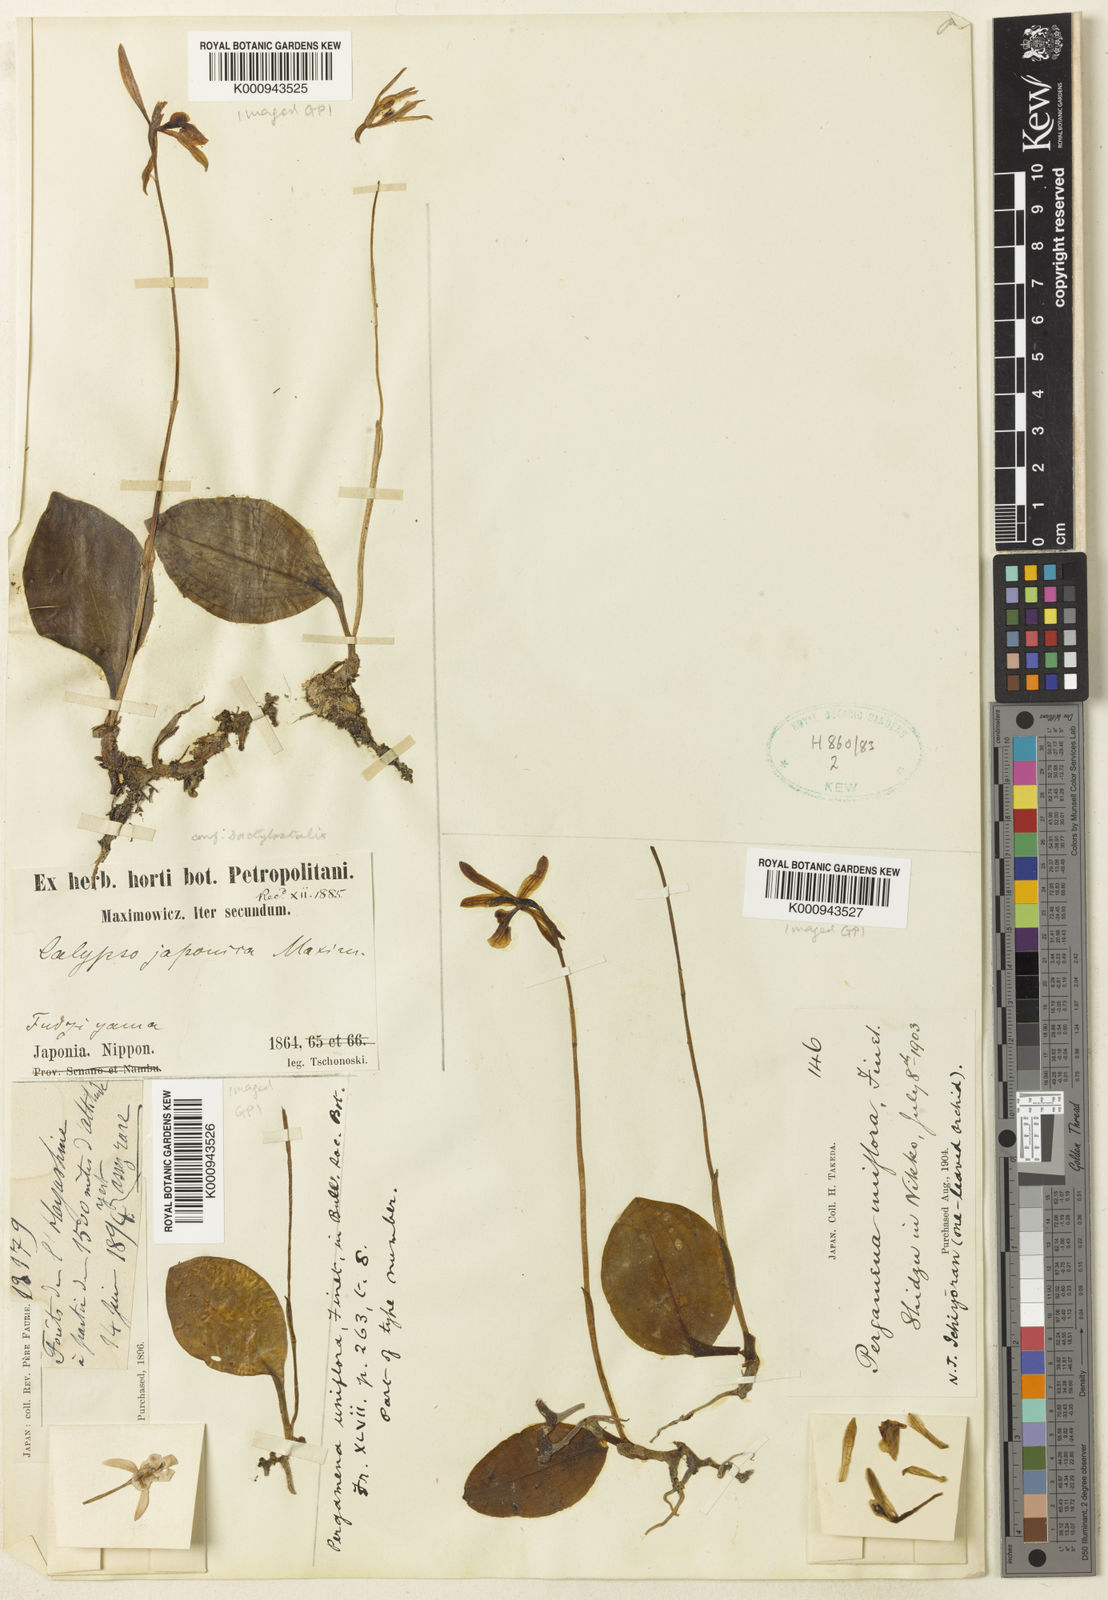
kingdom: Plantae
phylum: Tracheophyta
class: Liliopsida
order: Asparagales
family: Orchidaceae
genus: Dactylostalix
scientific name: Dactylostalix ringens
